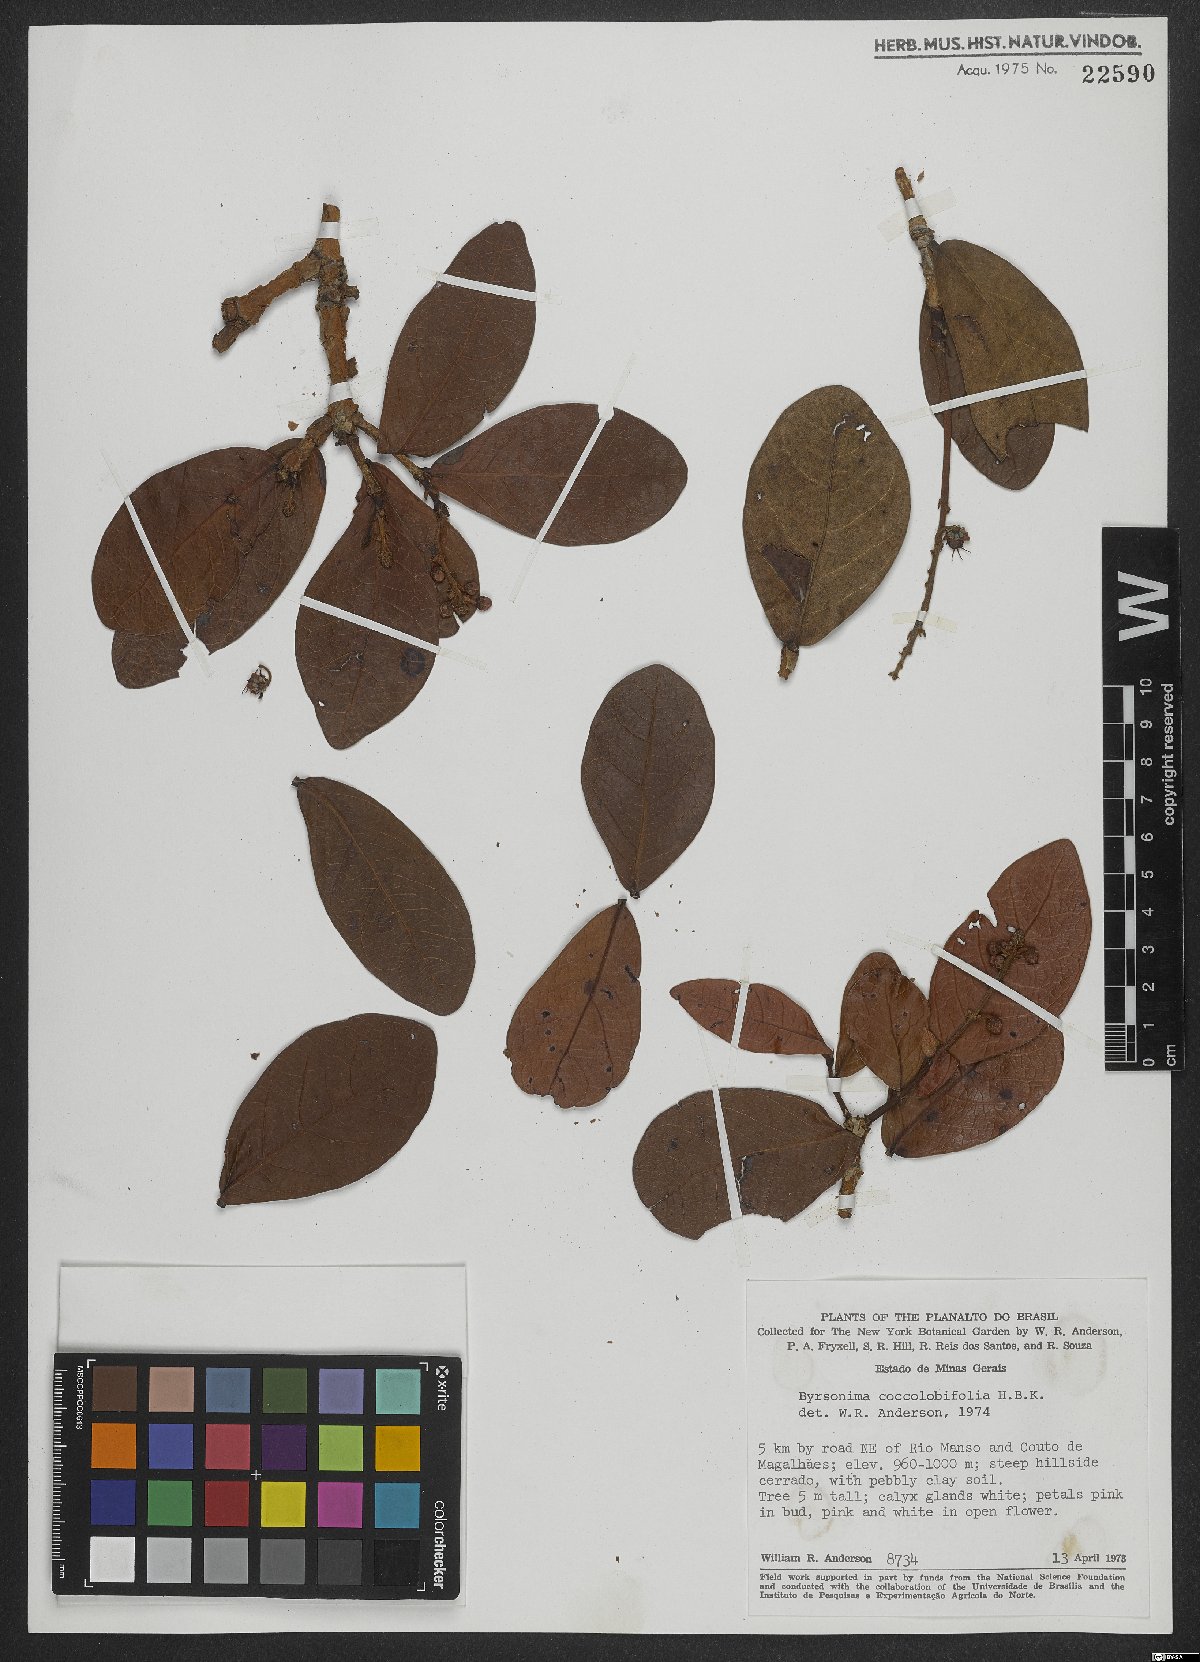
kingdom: Plantae
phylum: Tracheophyta
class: Magnoliopsida
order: Malpighiales
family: Malpighiaceae
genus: Byrsonima
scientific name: Byrsonima coccolobifolia
